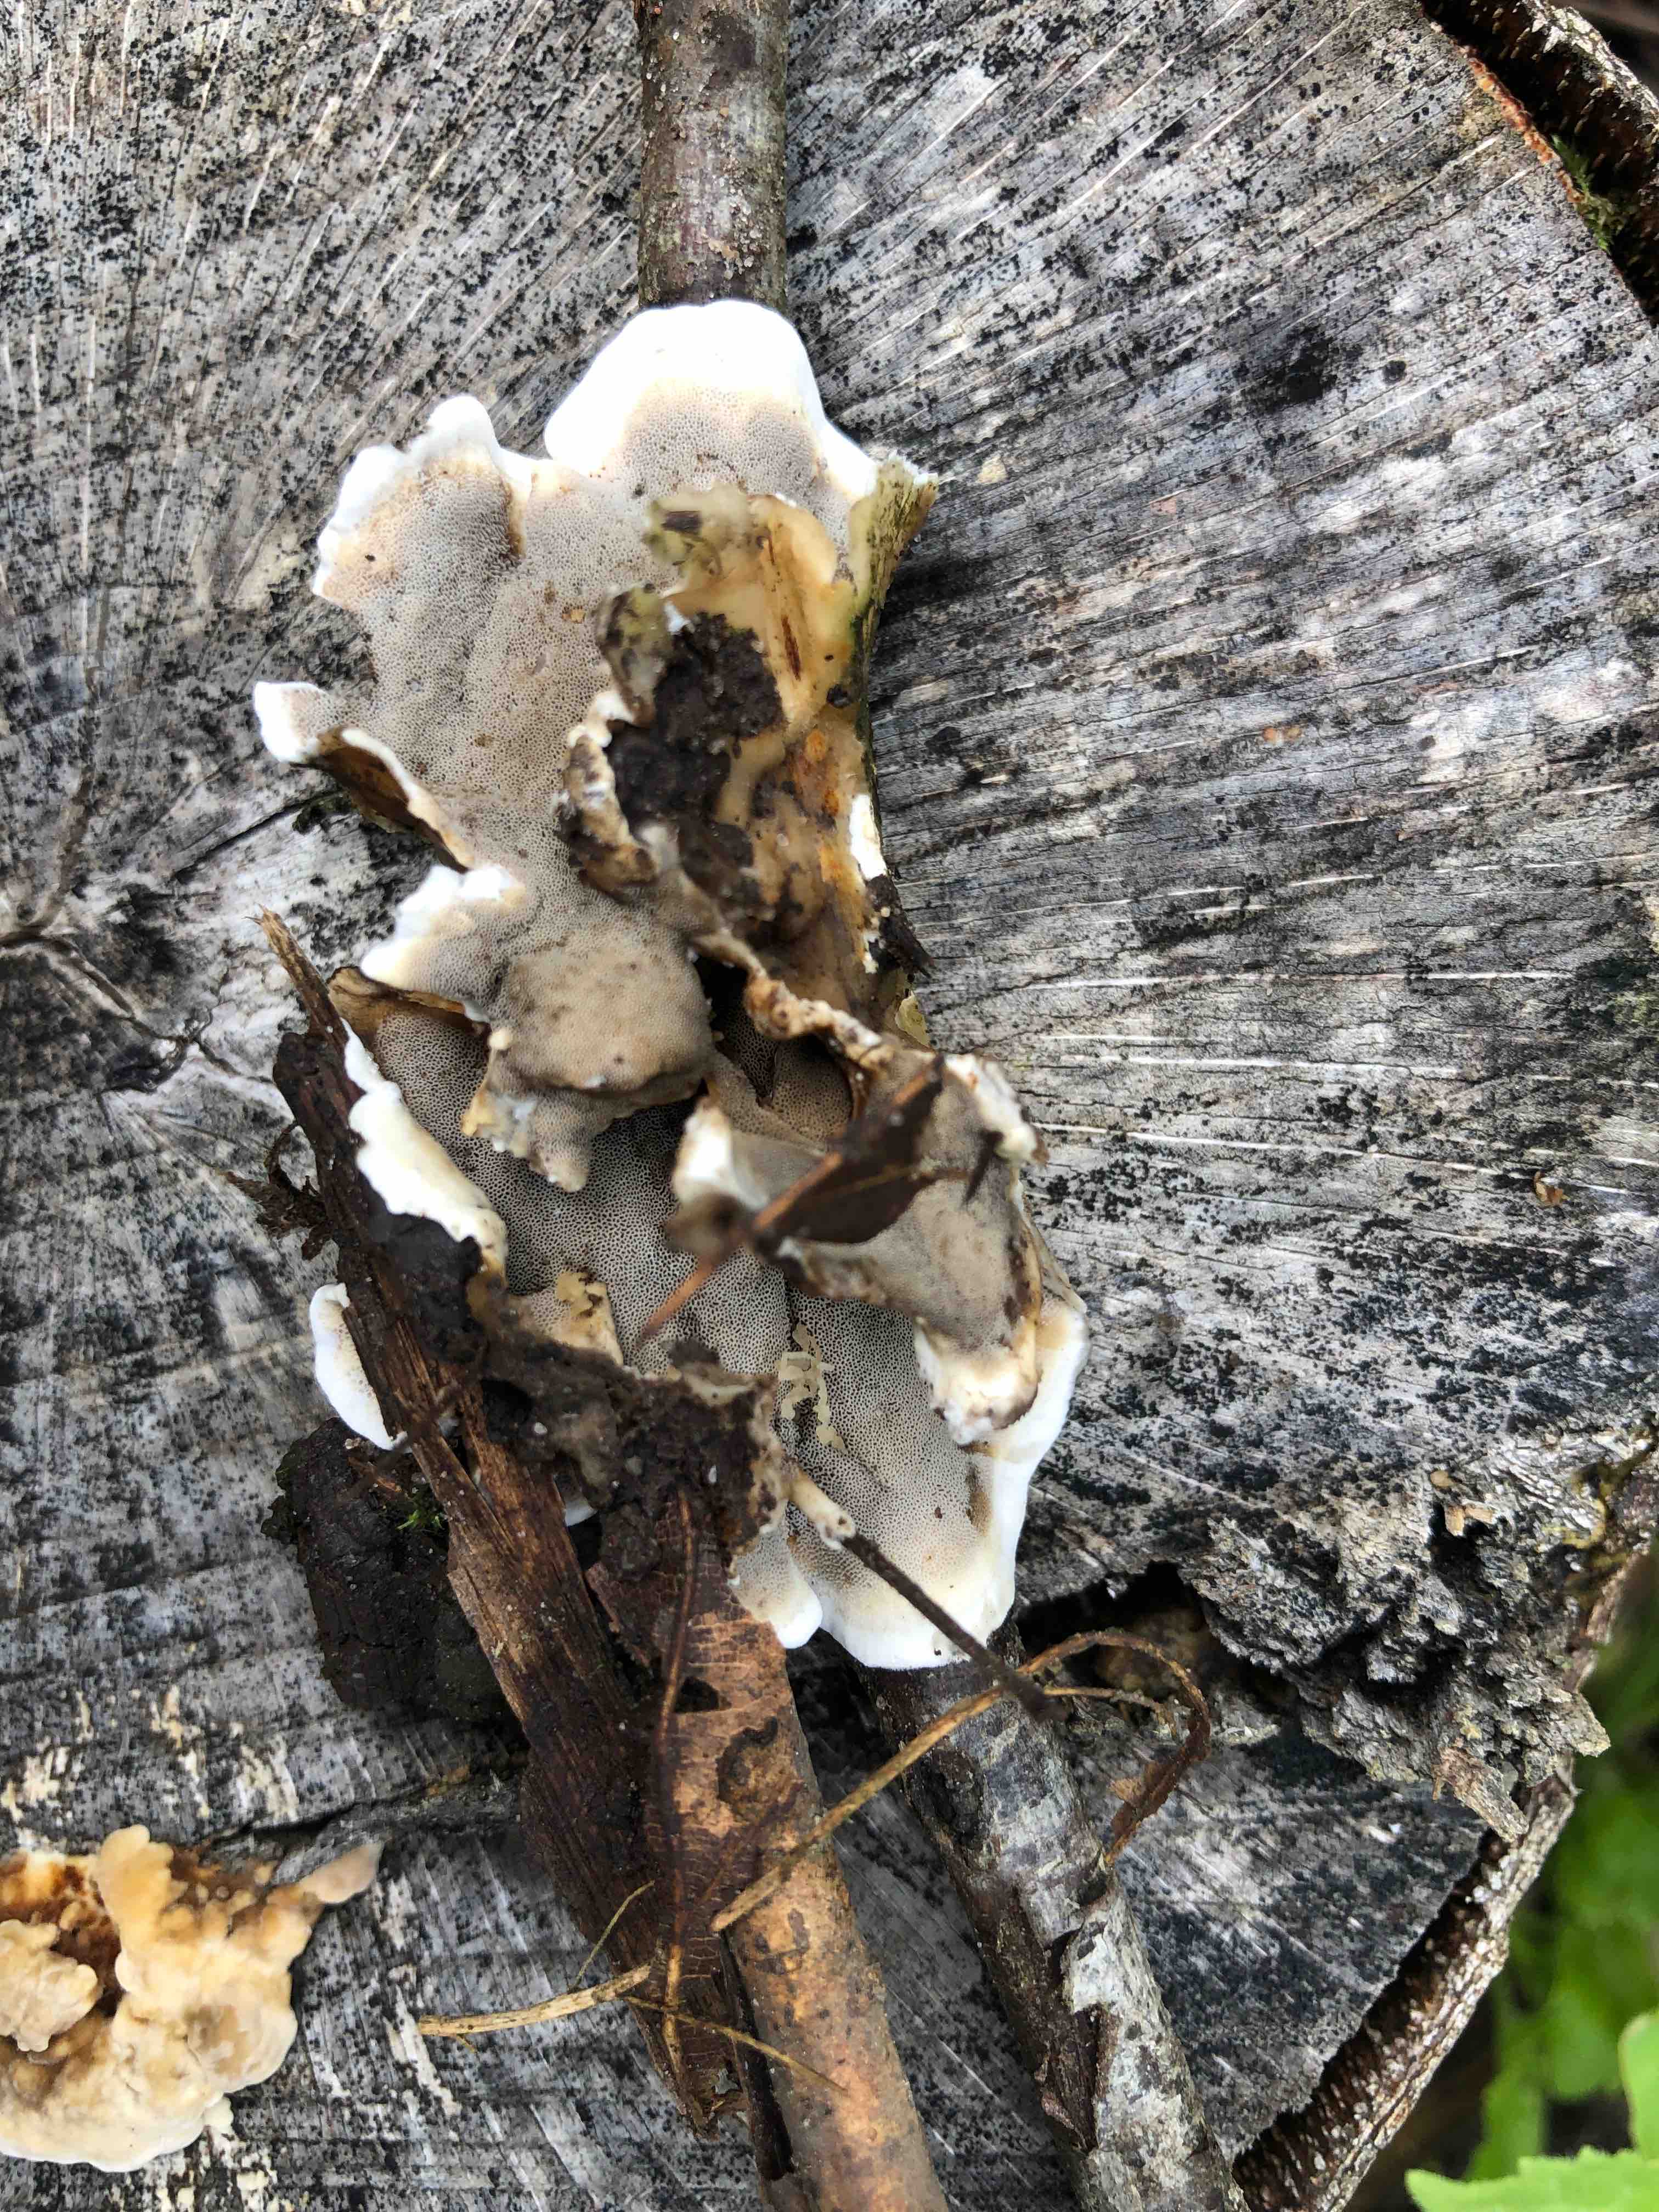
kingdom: Fungi
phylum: Basidiomycota
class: Agaricomycetes
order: Polyporales
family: Phanerochaetaceae
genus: Bjerkandera
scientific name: Bjerkandera adusta
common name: sveden sodporesvamp
